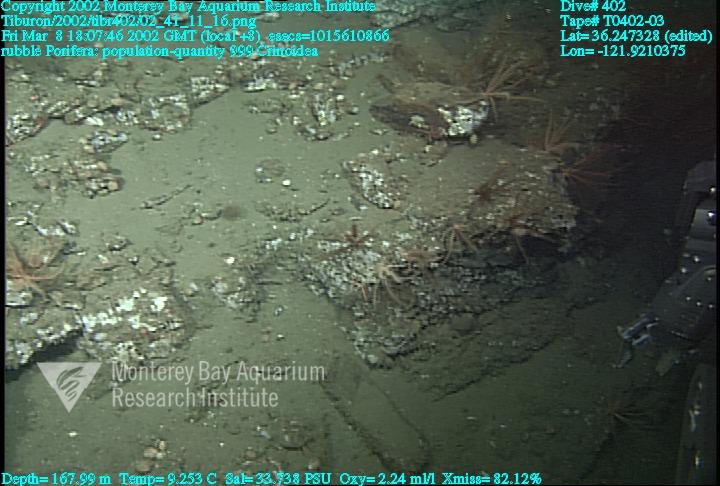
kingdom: Animalia
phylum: Porifera
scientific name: Porifera
